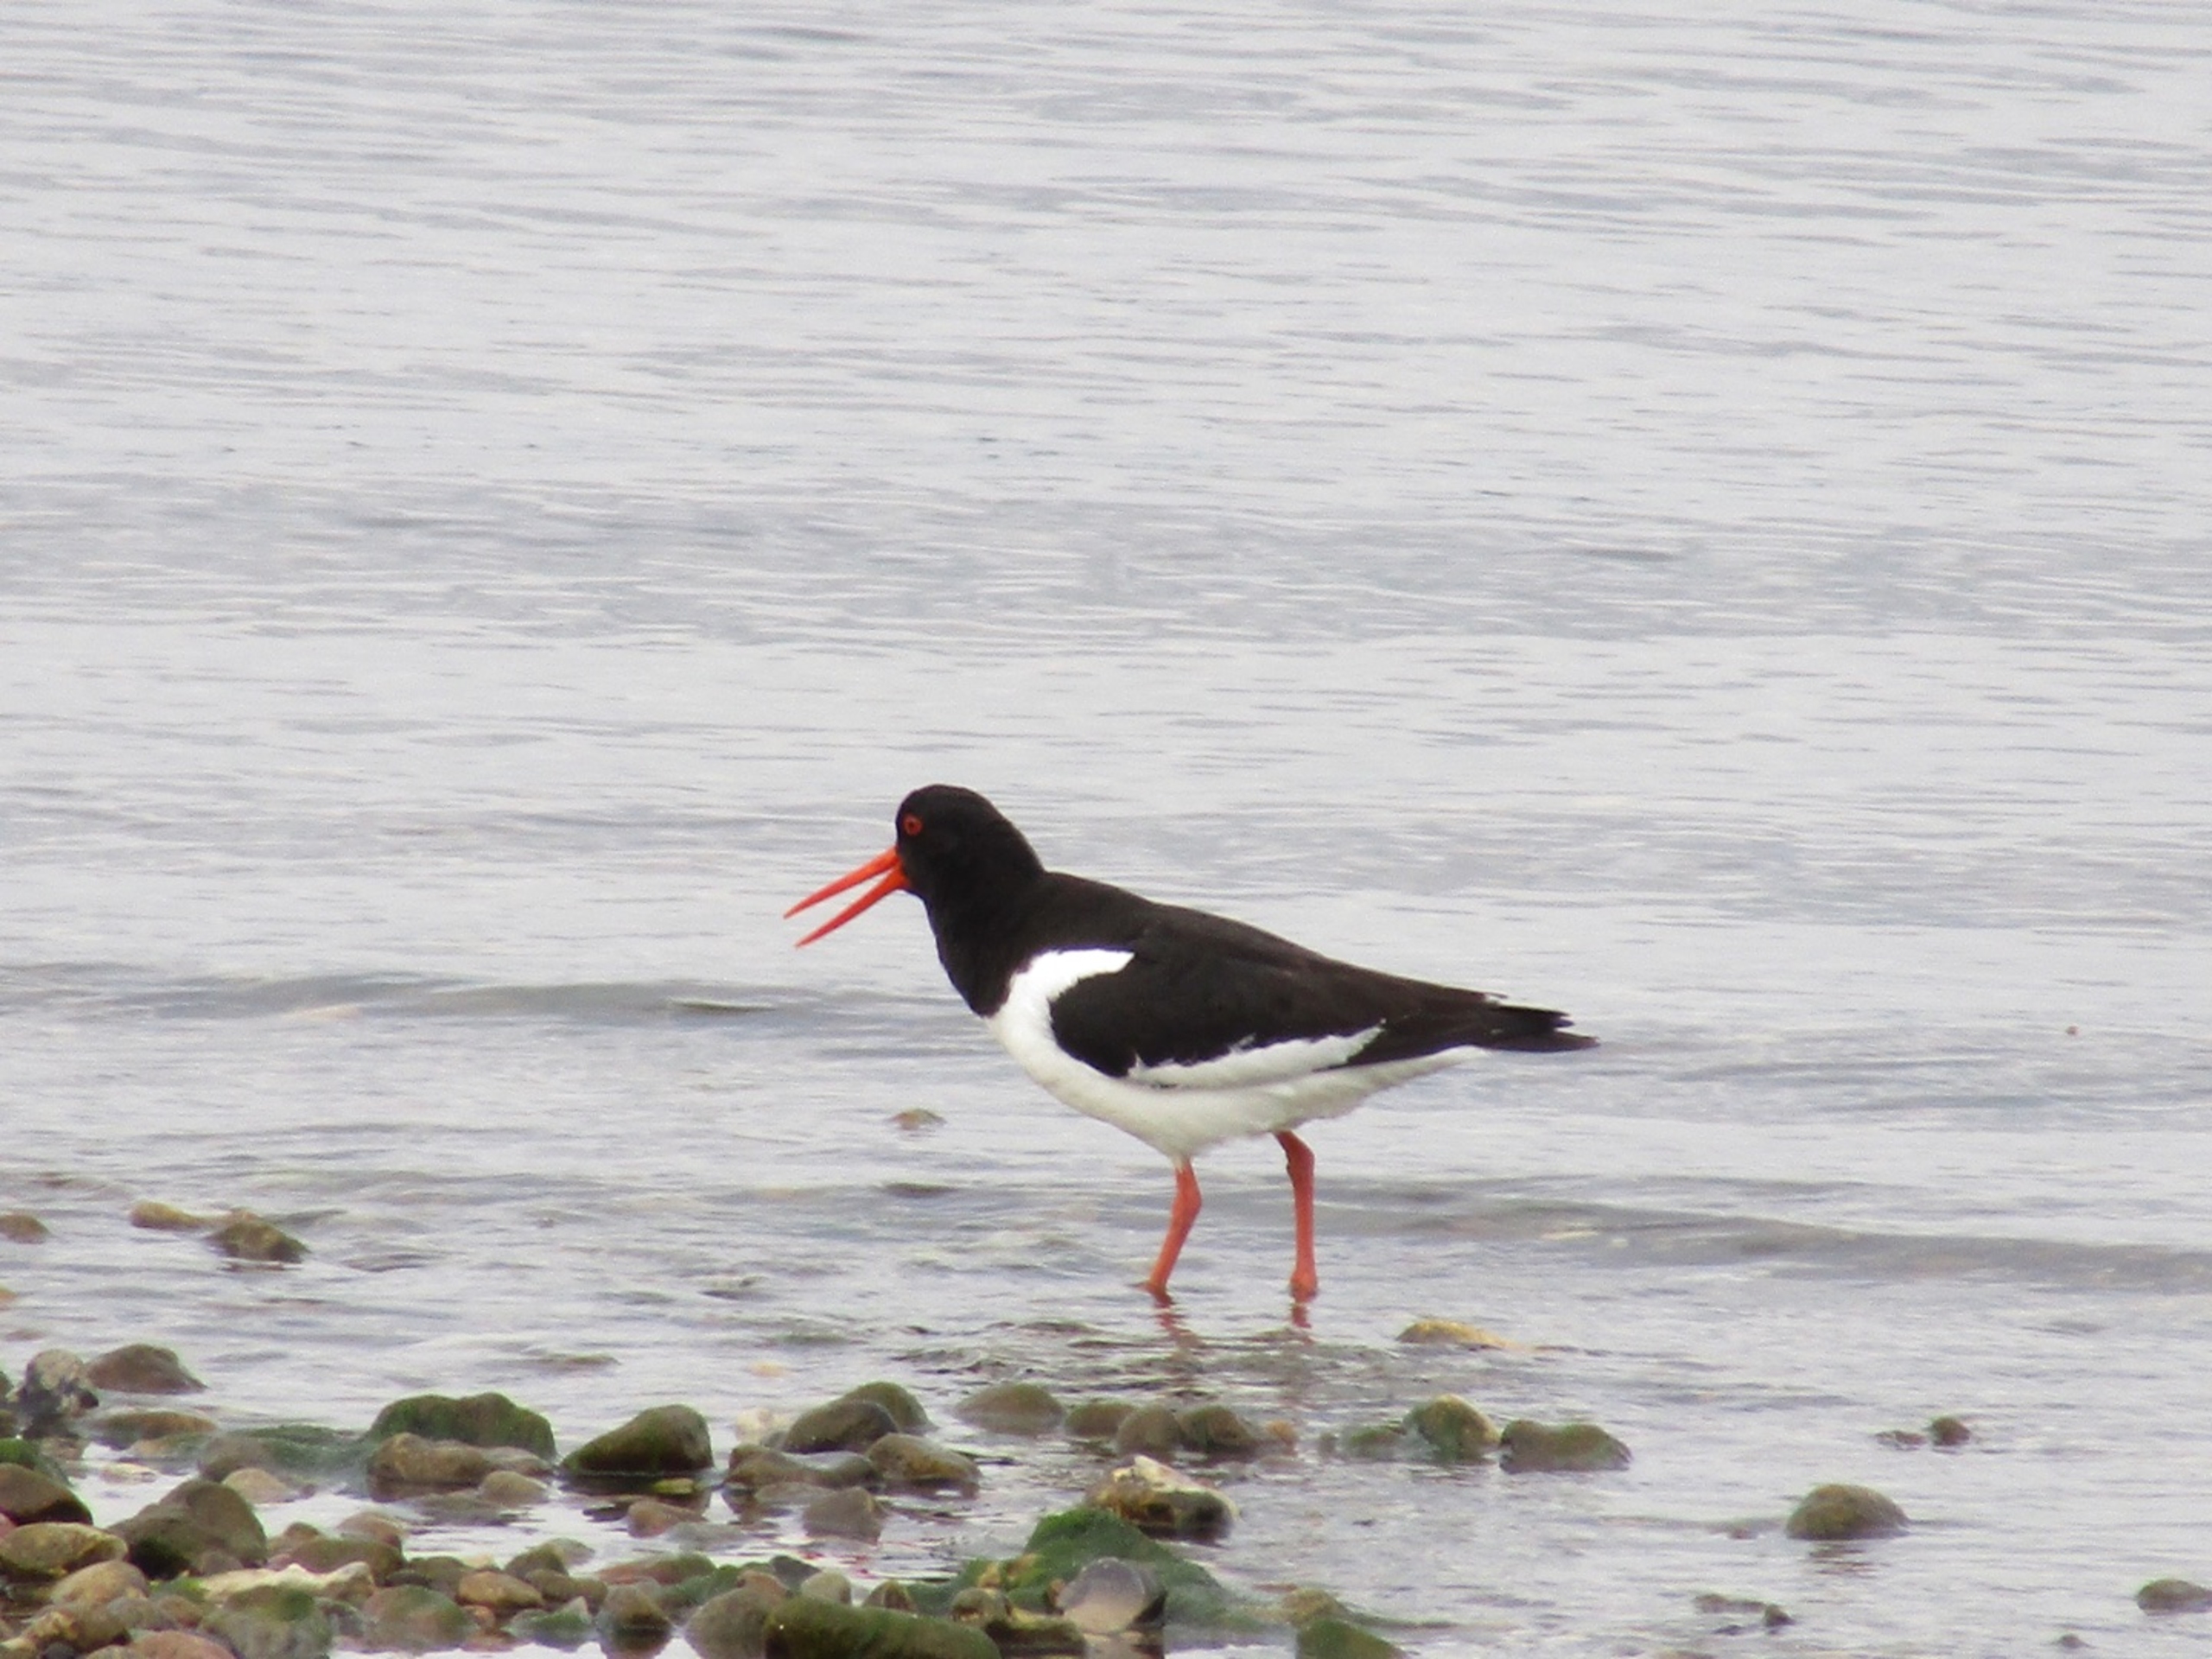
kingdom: Animalia
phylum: Chordata
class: Aves
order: Charadriiformes
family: Haematopodidae
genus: Haematopus
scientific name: Haematopus ostralegus
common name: Strandskade
